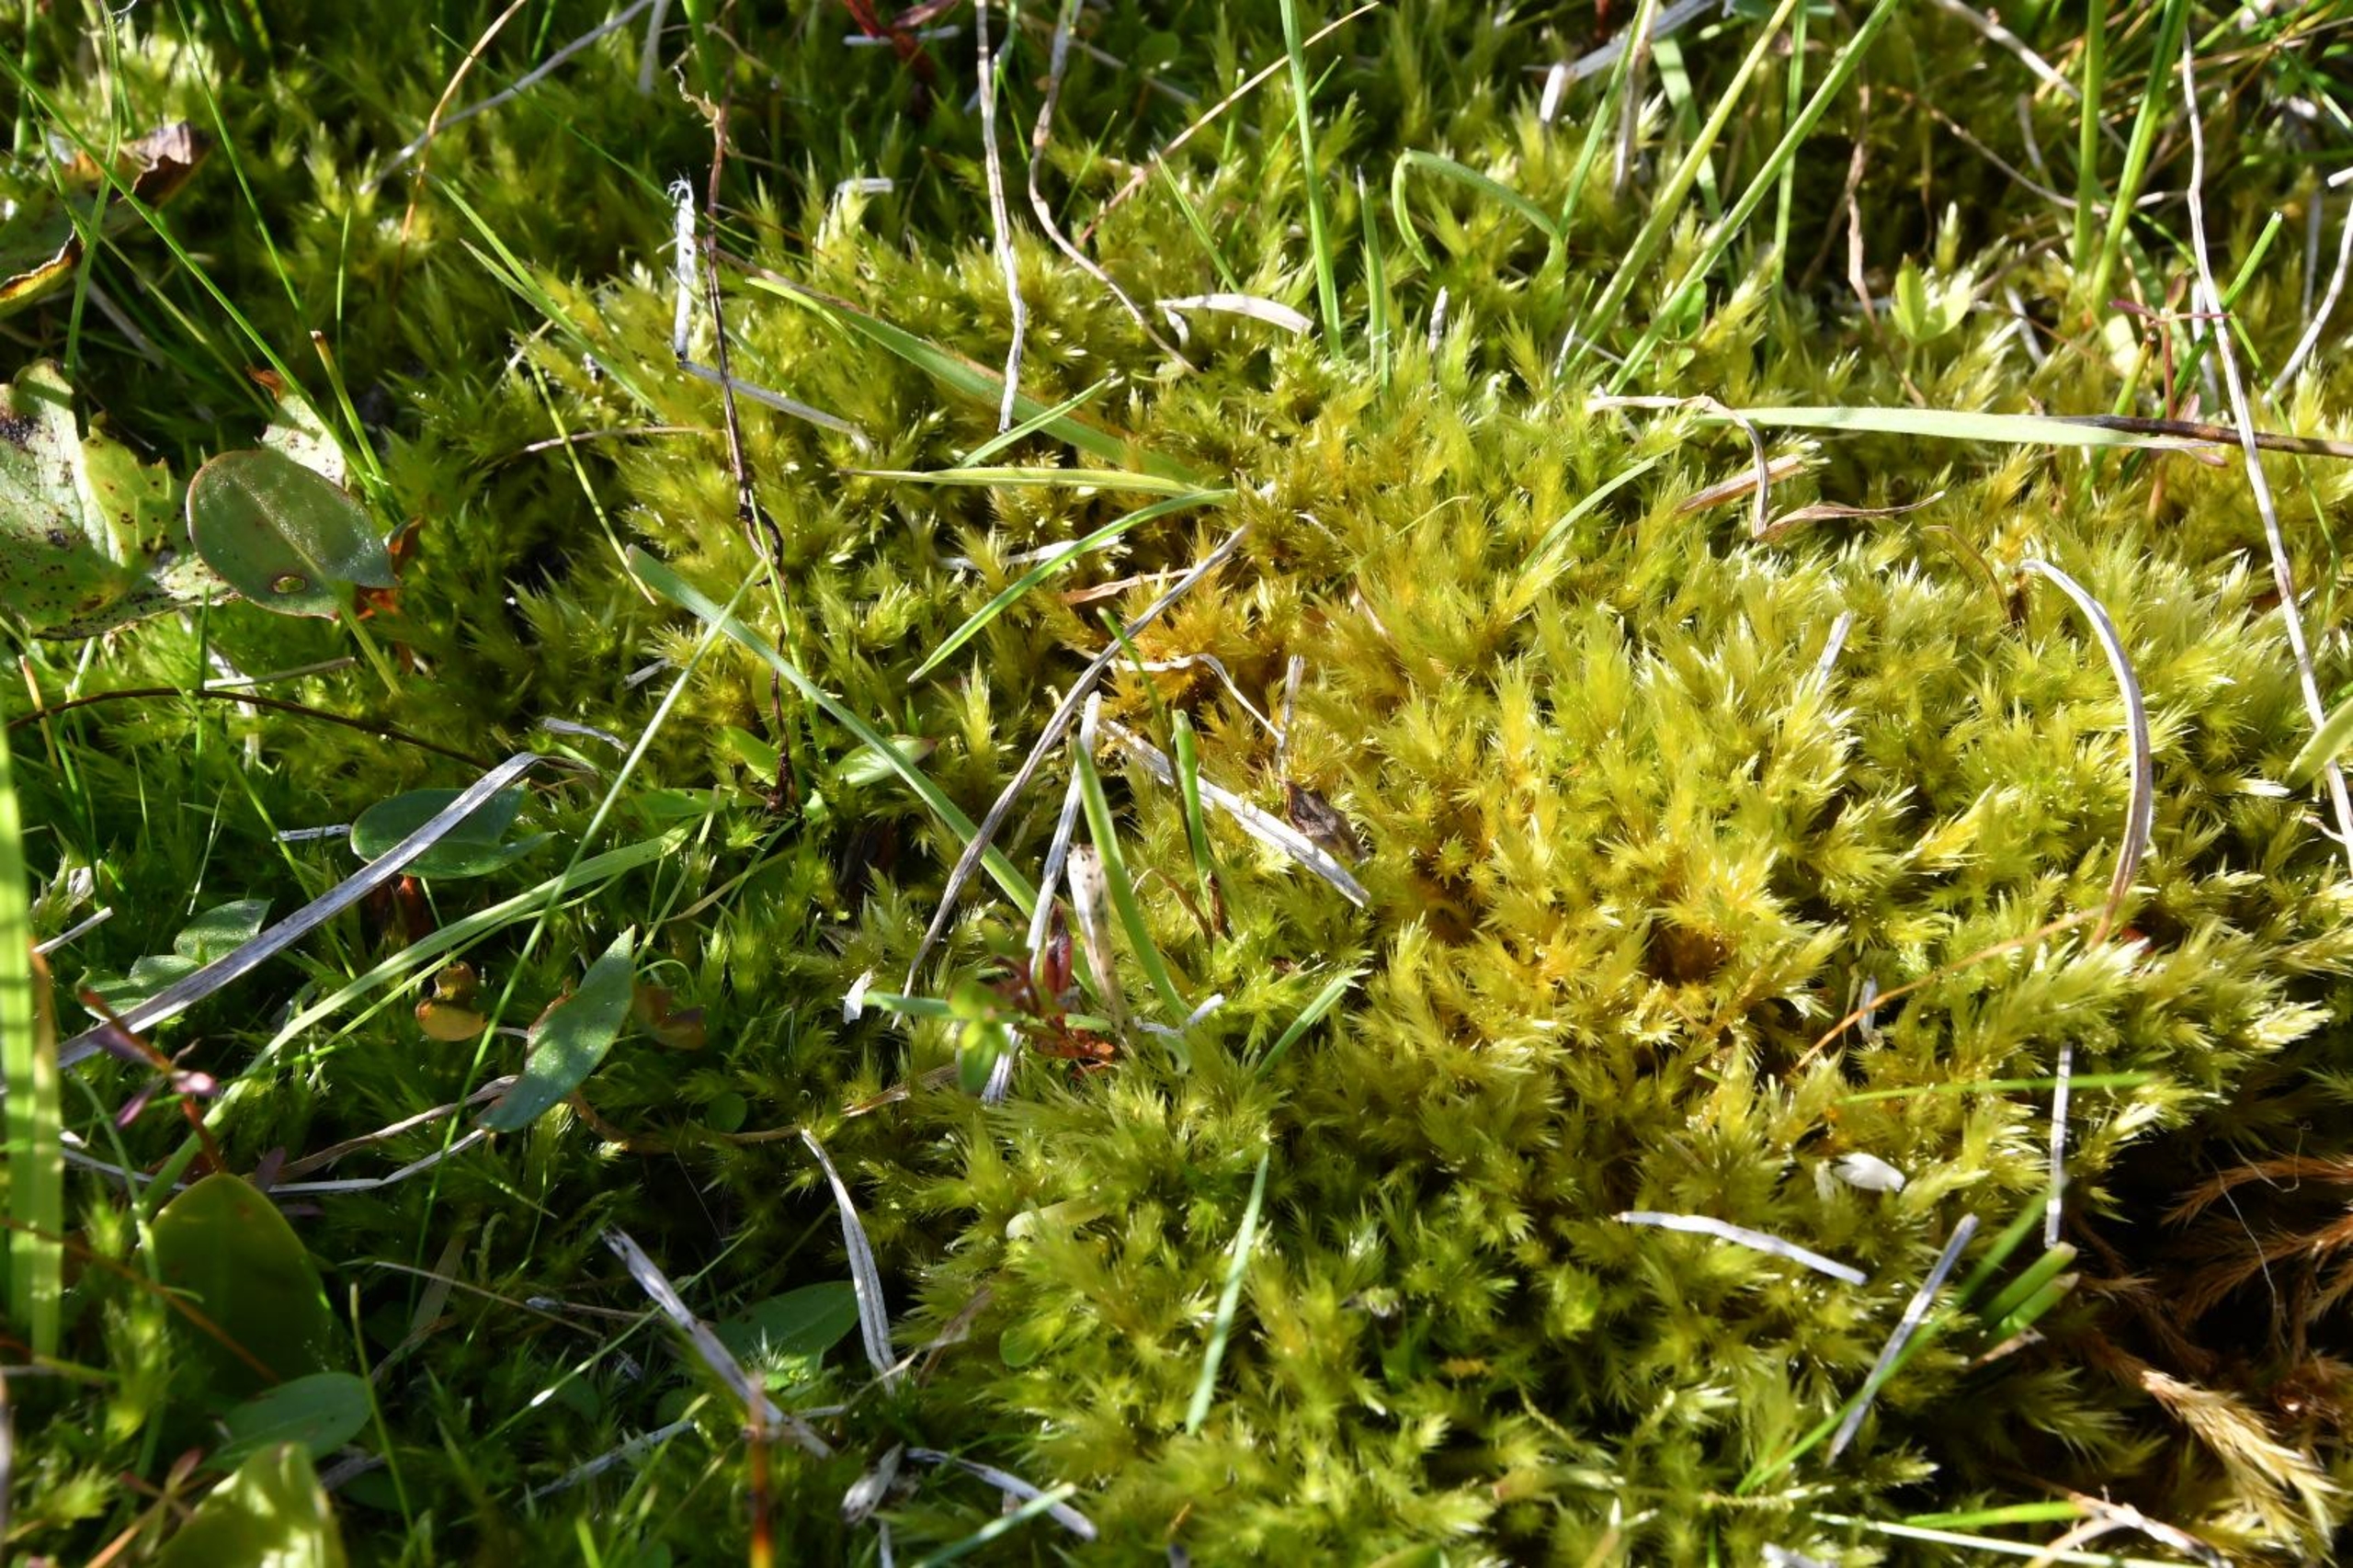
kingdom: Plantae
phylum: Bryophyta
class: Bryopsida
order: Hypnales
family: Amblystegiaceae
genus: Tomentypnum
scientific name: Tomentypnum nitens
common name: Glinsende kærmos
